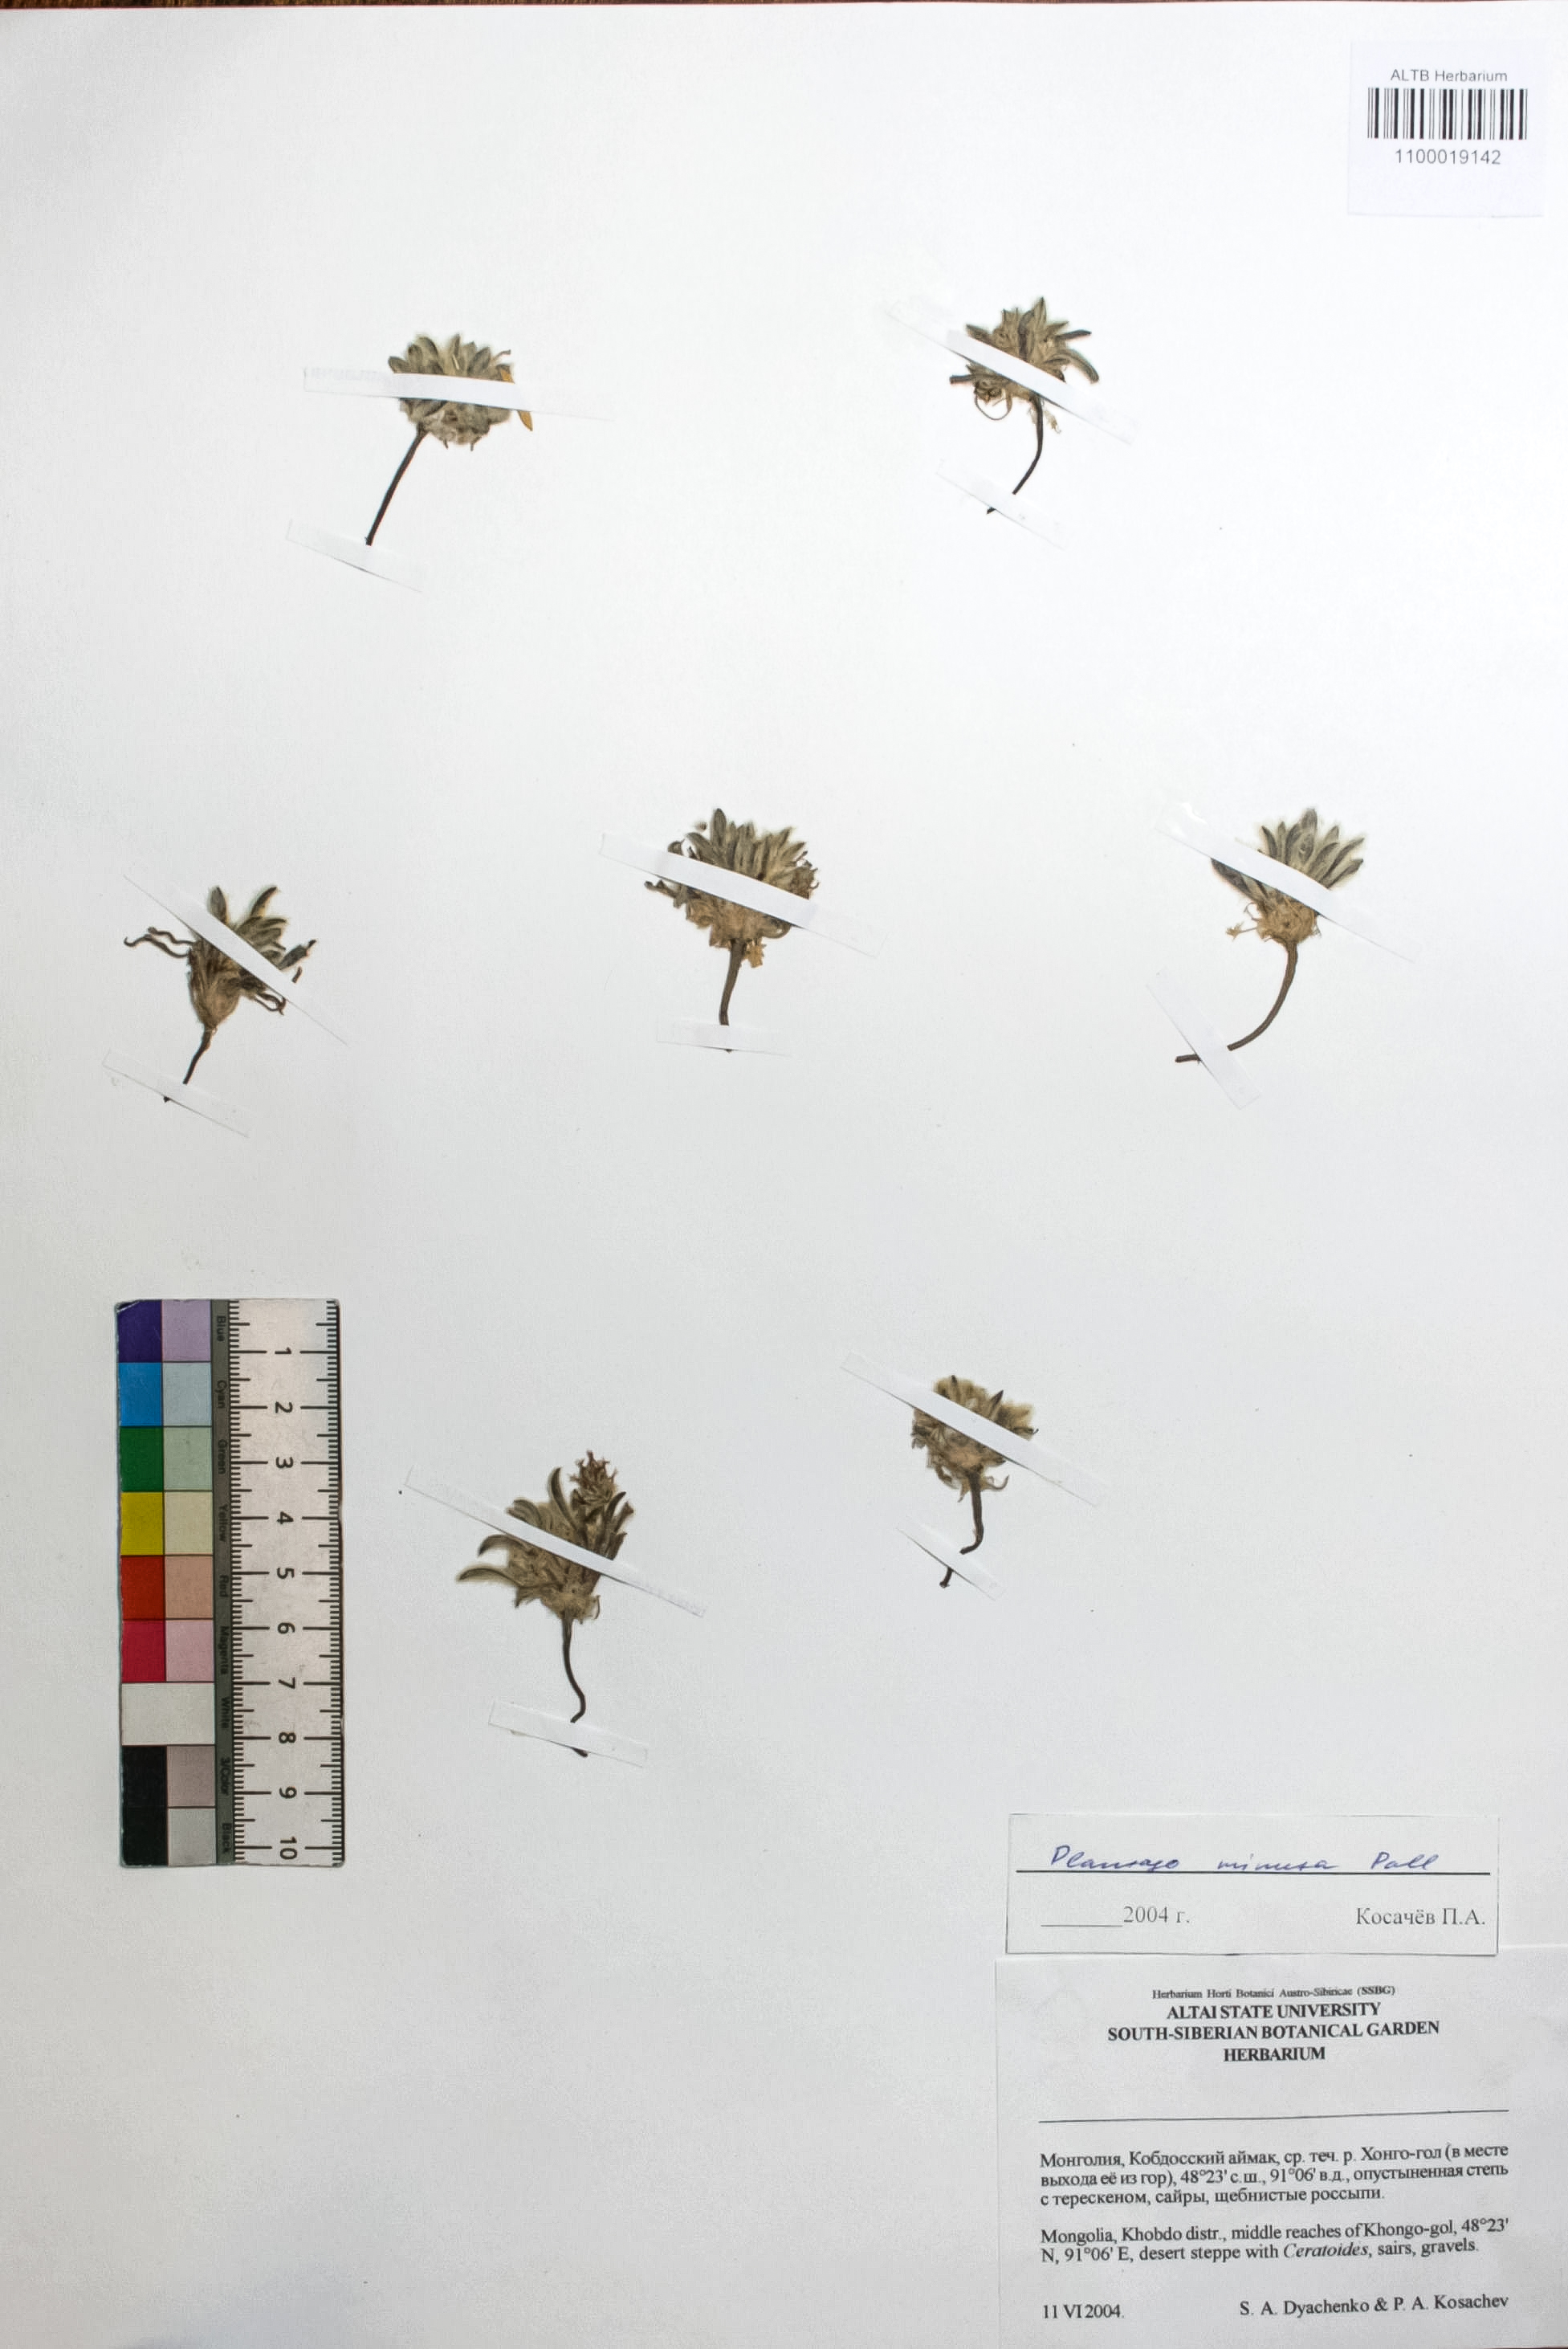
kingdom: Plantae
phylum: Tracheophyta
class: Magnoliopsida
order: Lamiales
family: Plantaginaceae
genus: Plantago
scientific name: Plantago minuta
